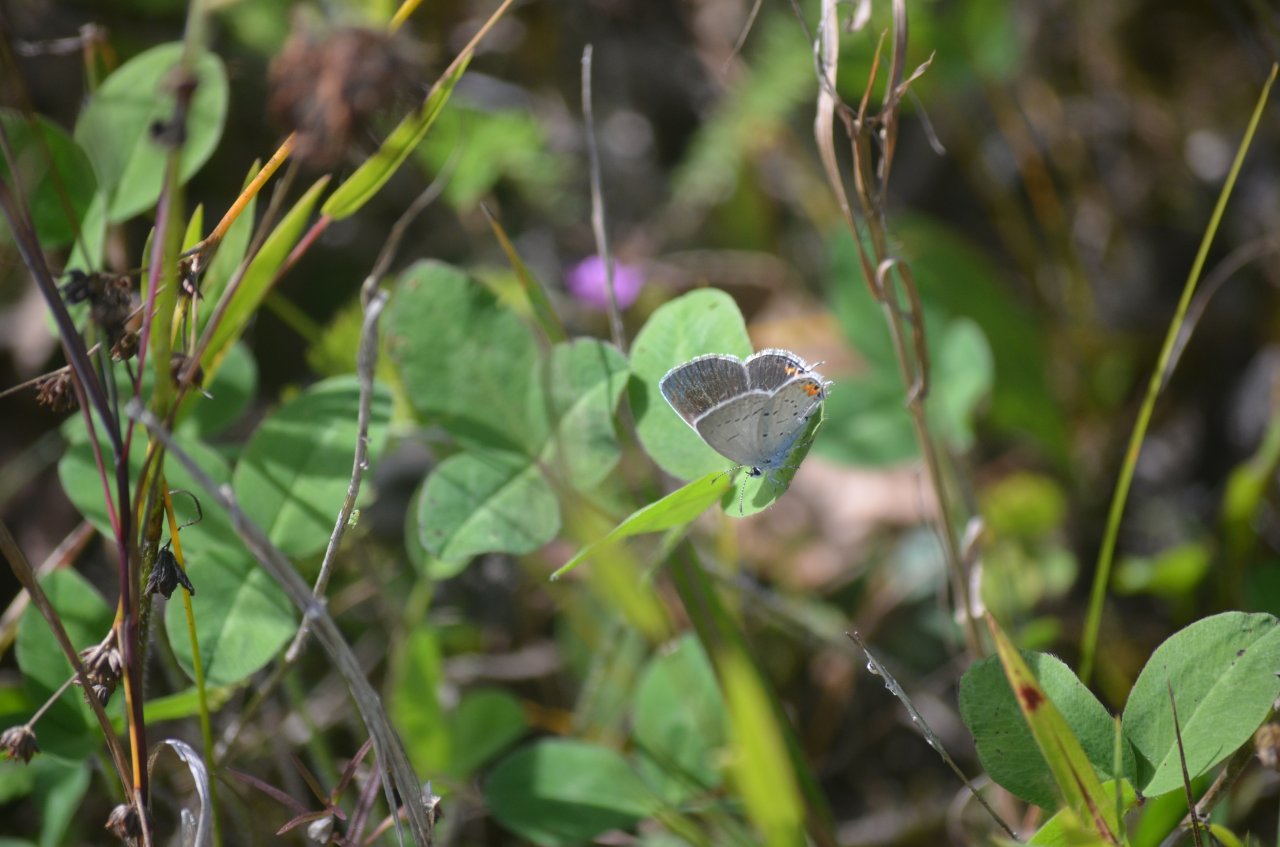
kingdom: Animalia
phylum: Arthropoda
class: Insecta
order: Lepidoptera
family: Lycaenidae
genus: Elkalyce
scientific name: Elkalyce comyntas
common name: Eastern Tailed-Blue
